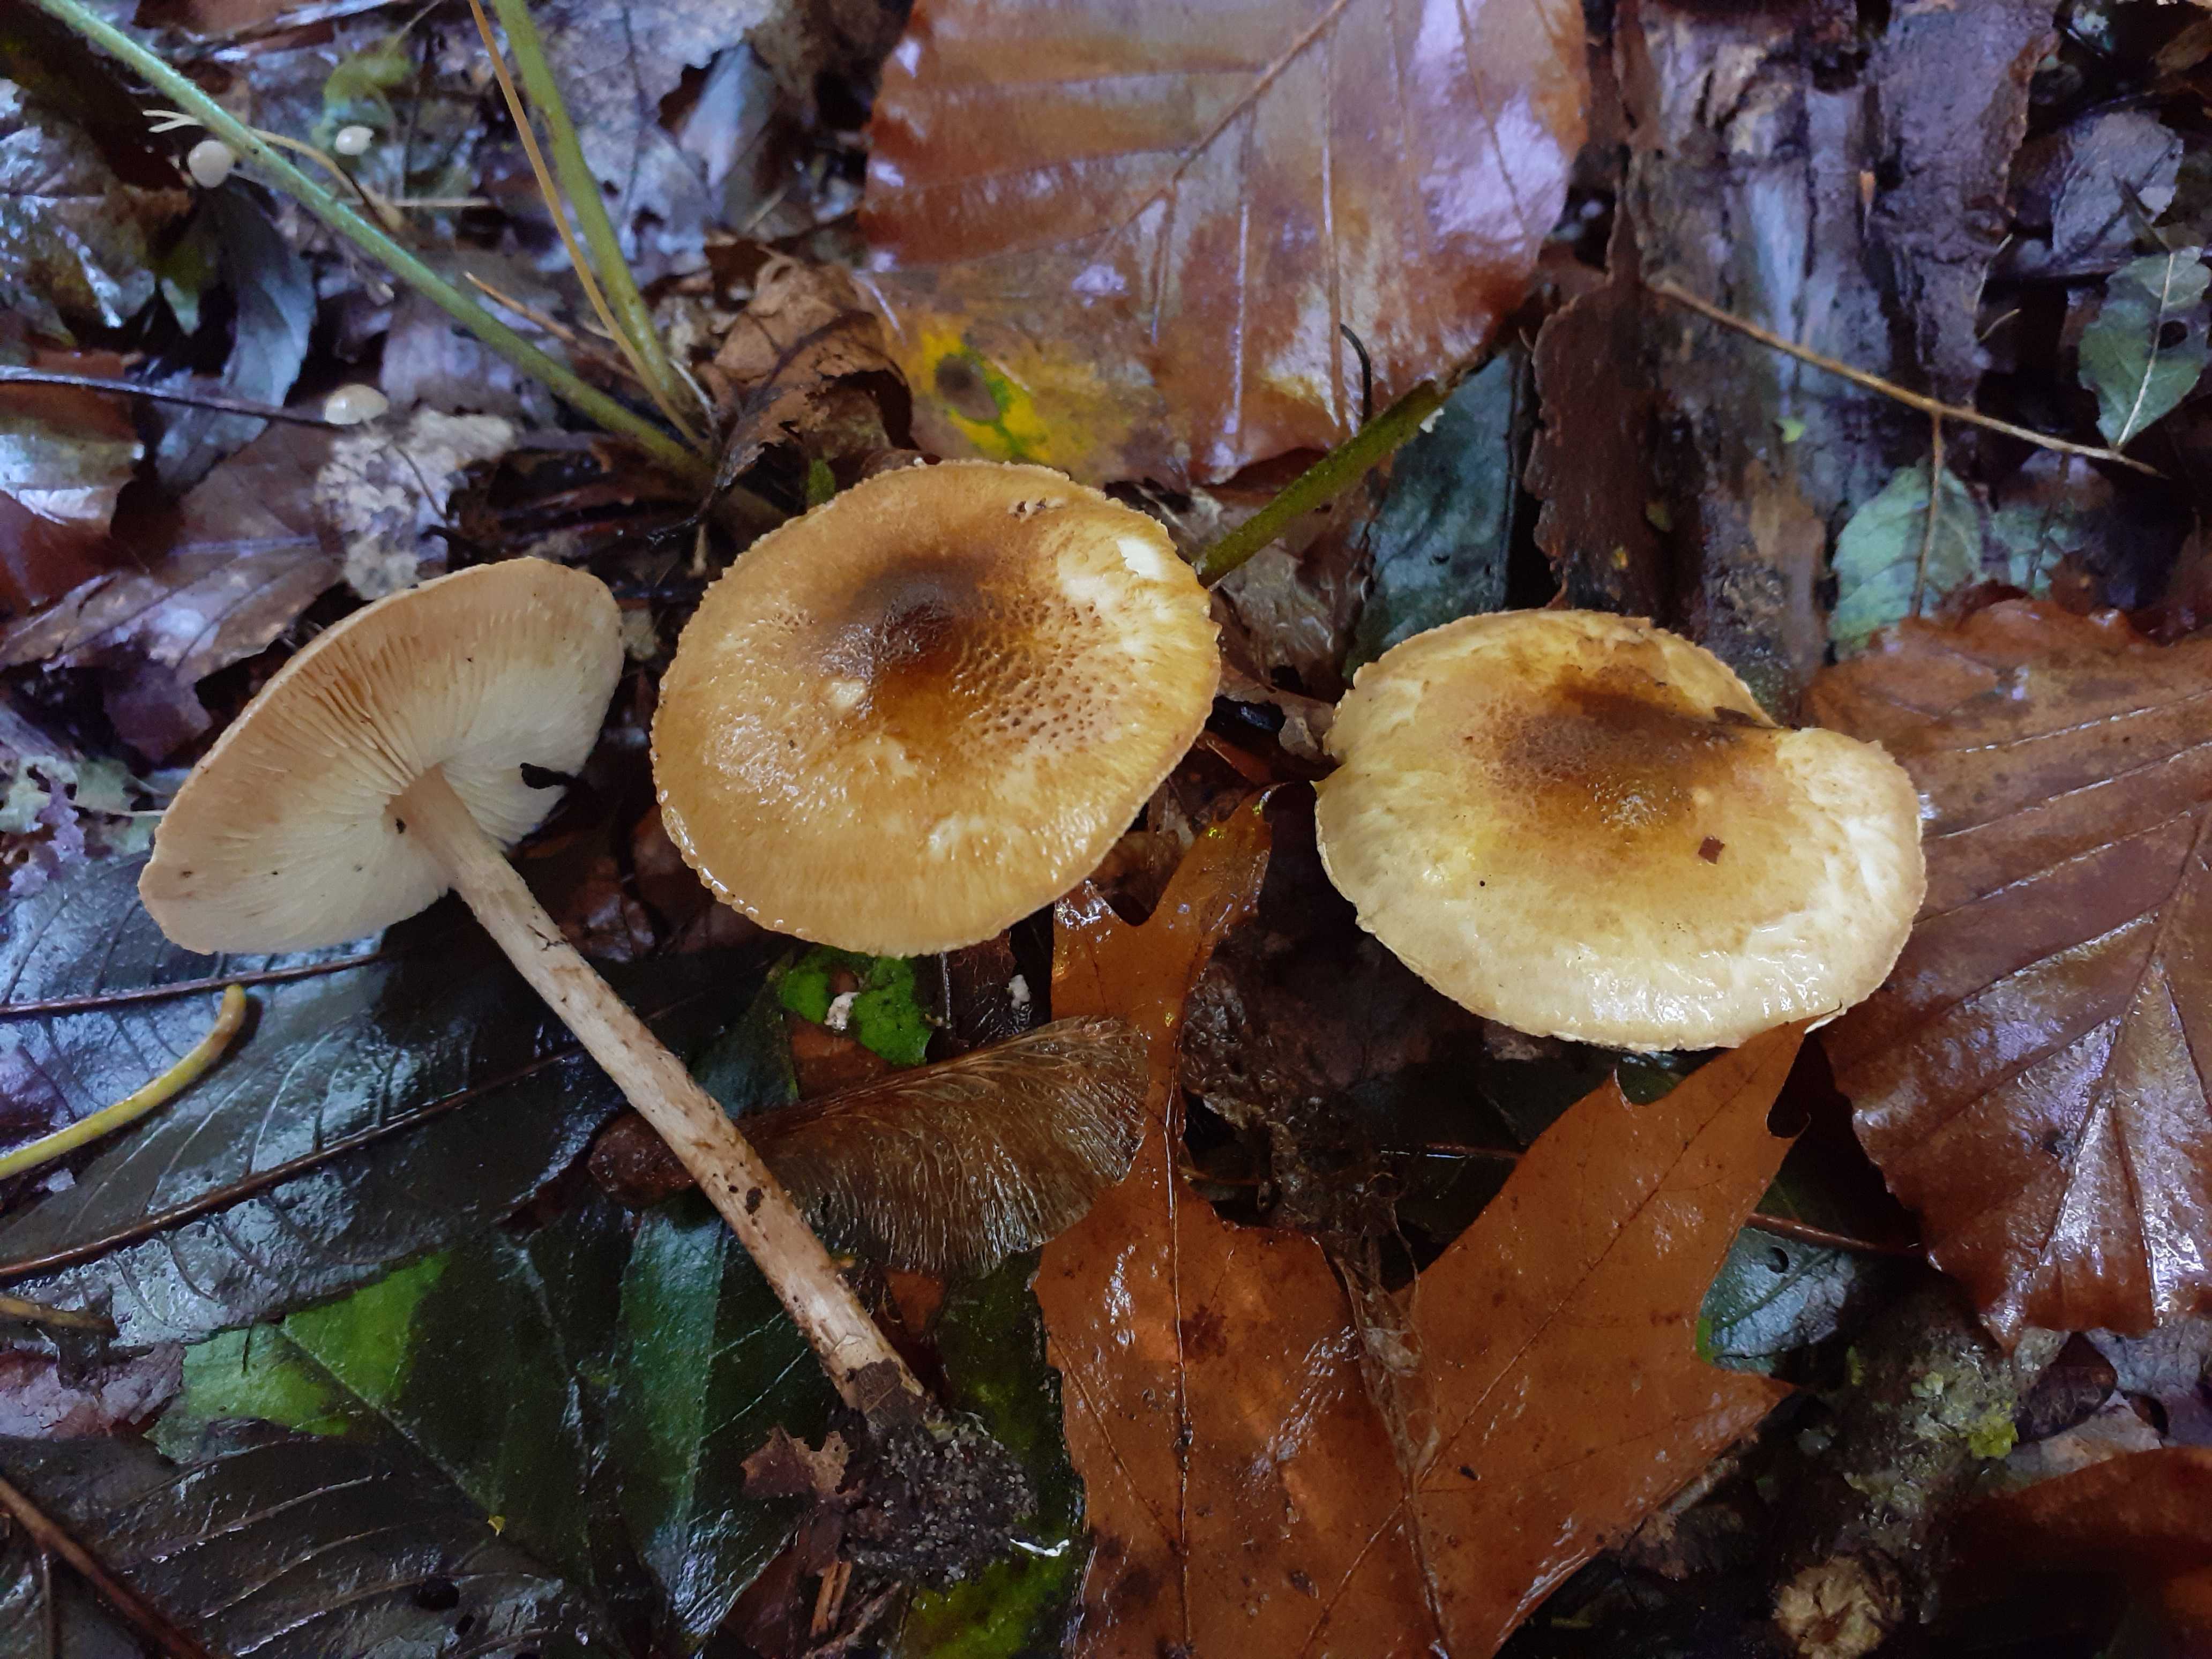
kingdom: Fungi
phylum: Basidiomycota
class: Agaricomycetes
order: Agaricales
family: Agaricaceae
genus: Leucocoprinus
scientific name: Leucocoprinus straminellus
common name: rustbrun parasolhat
